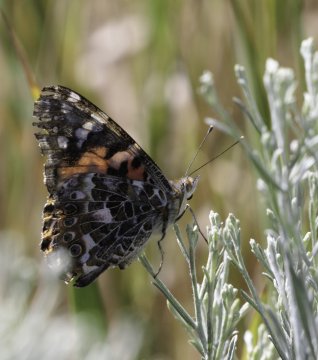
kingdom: Animalia
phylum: Arthropoda
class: Insecta
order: Lepidoptera
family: Nymphalidae
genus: Vanessa
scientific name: Vanessa cardui
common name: Painted Lady
